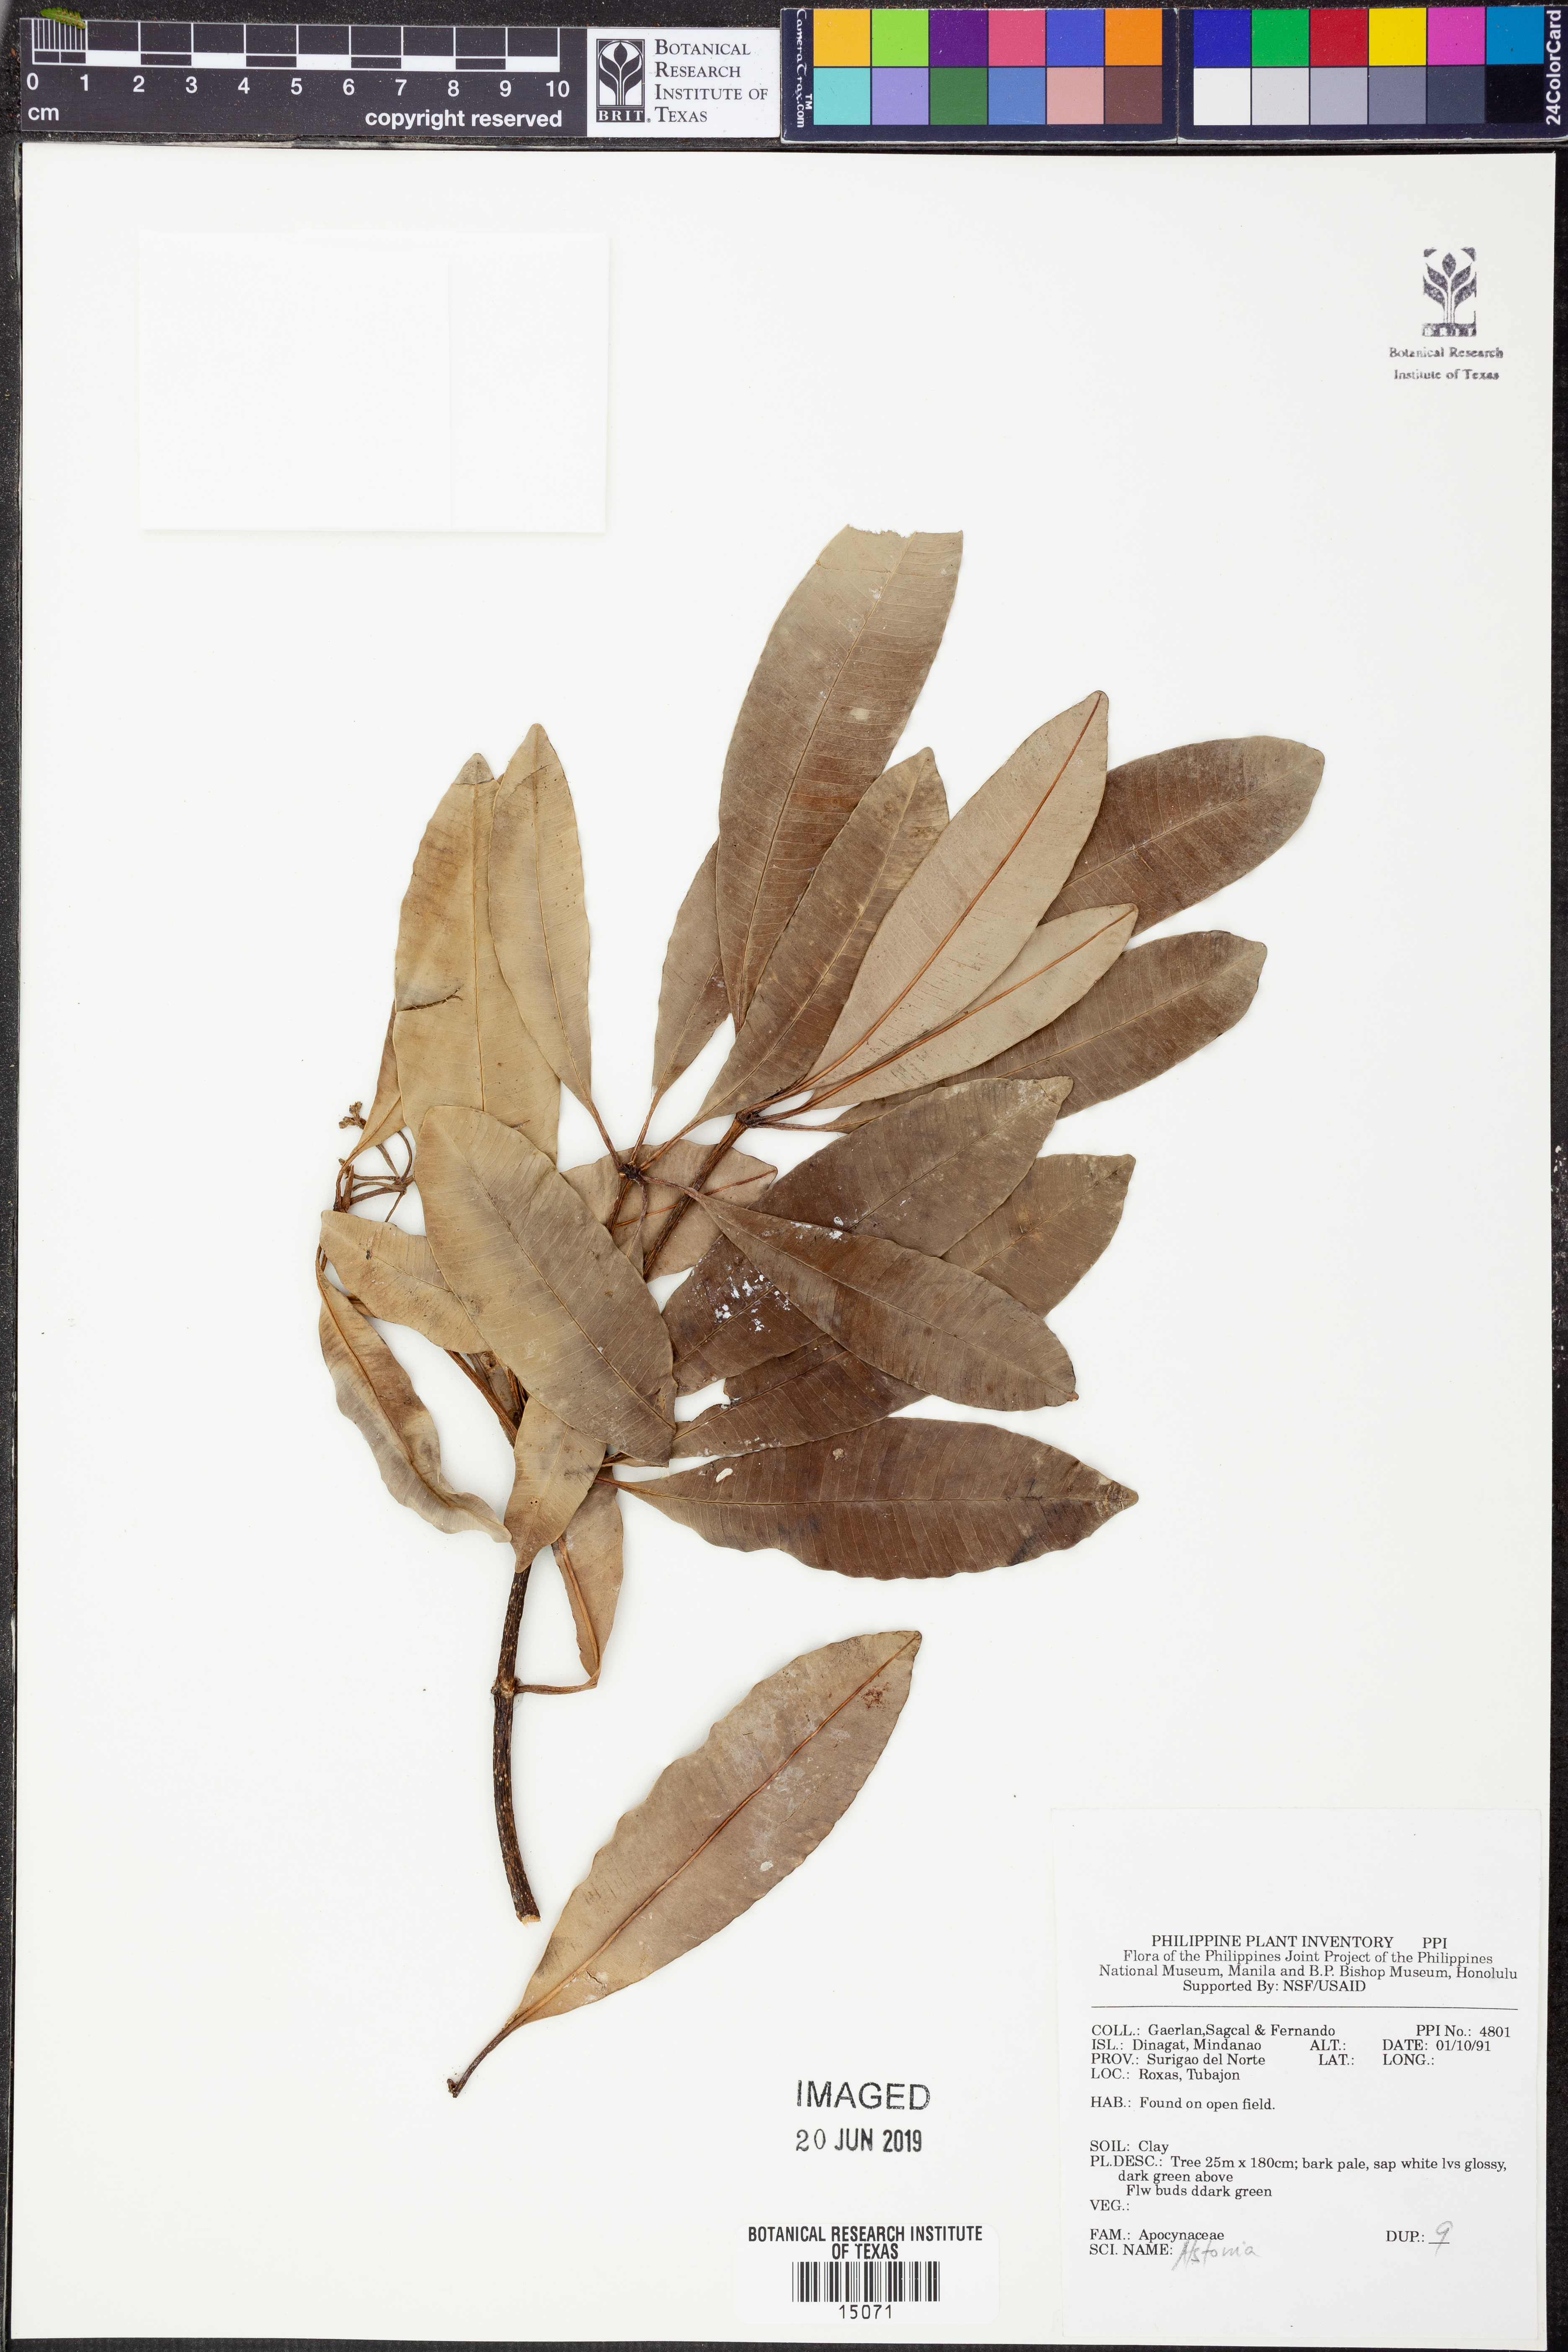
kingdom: Plantae
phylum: Tracheophyta
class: Magnoliopsida
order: Gentianales
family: Apocynaceae
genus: Alstonia
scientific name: Alstonia
